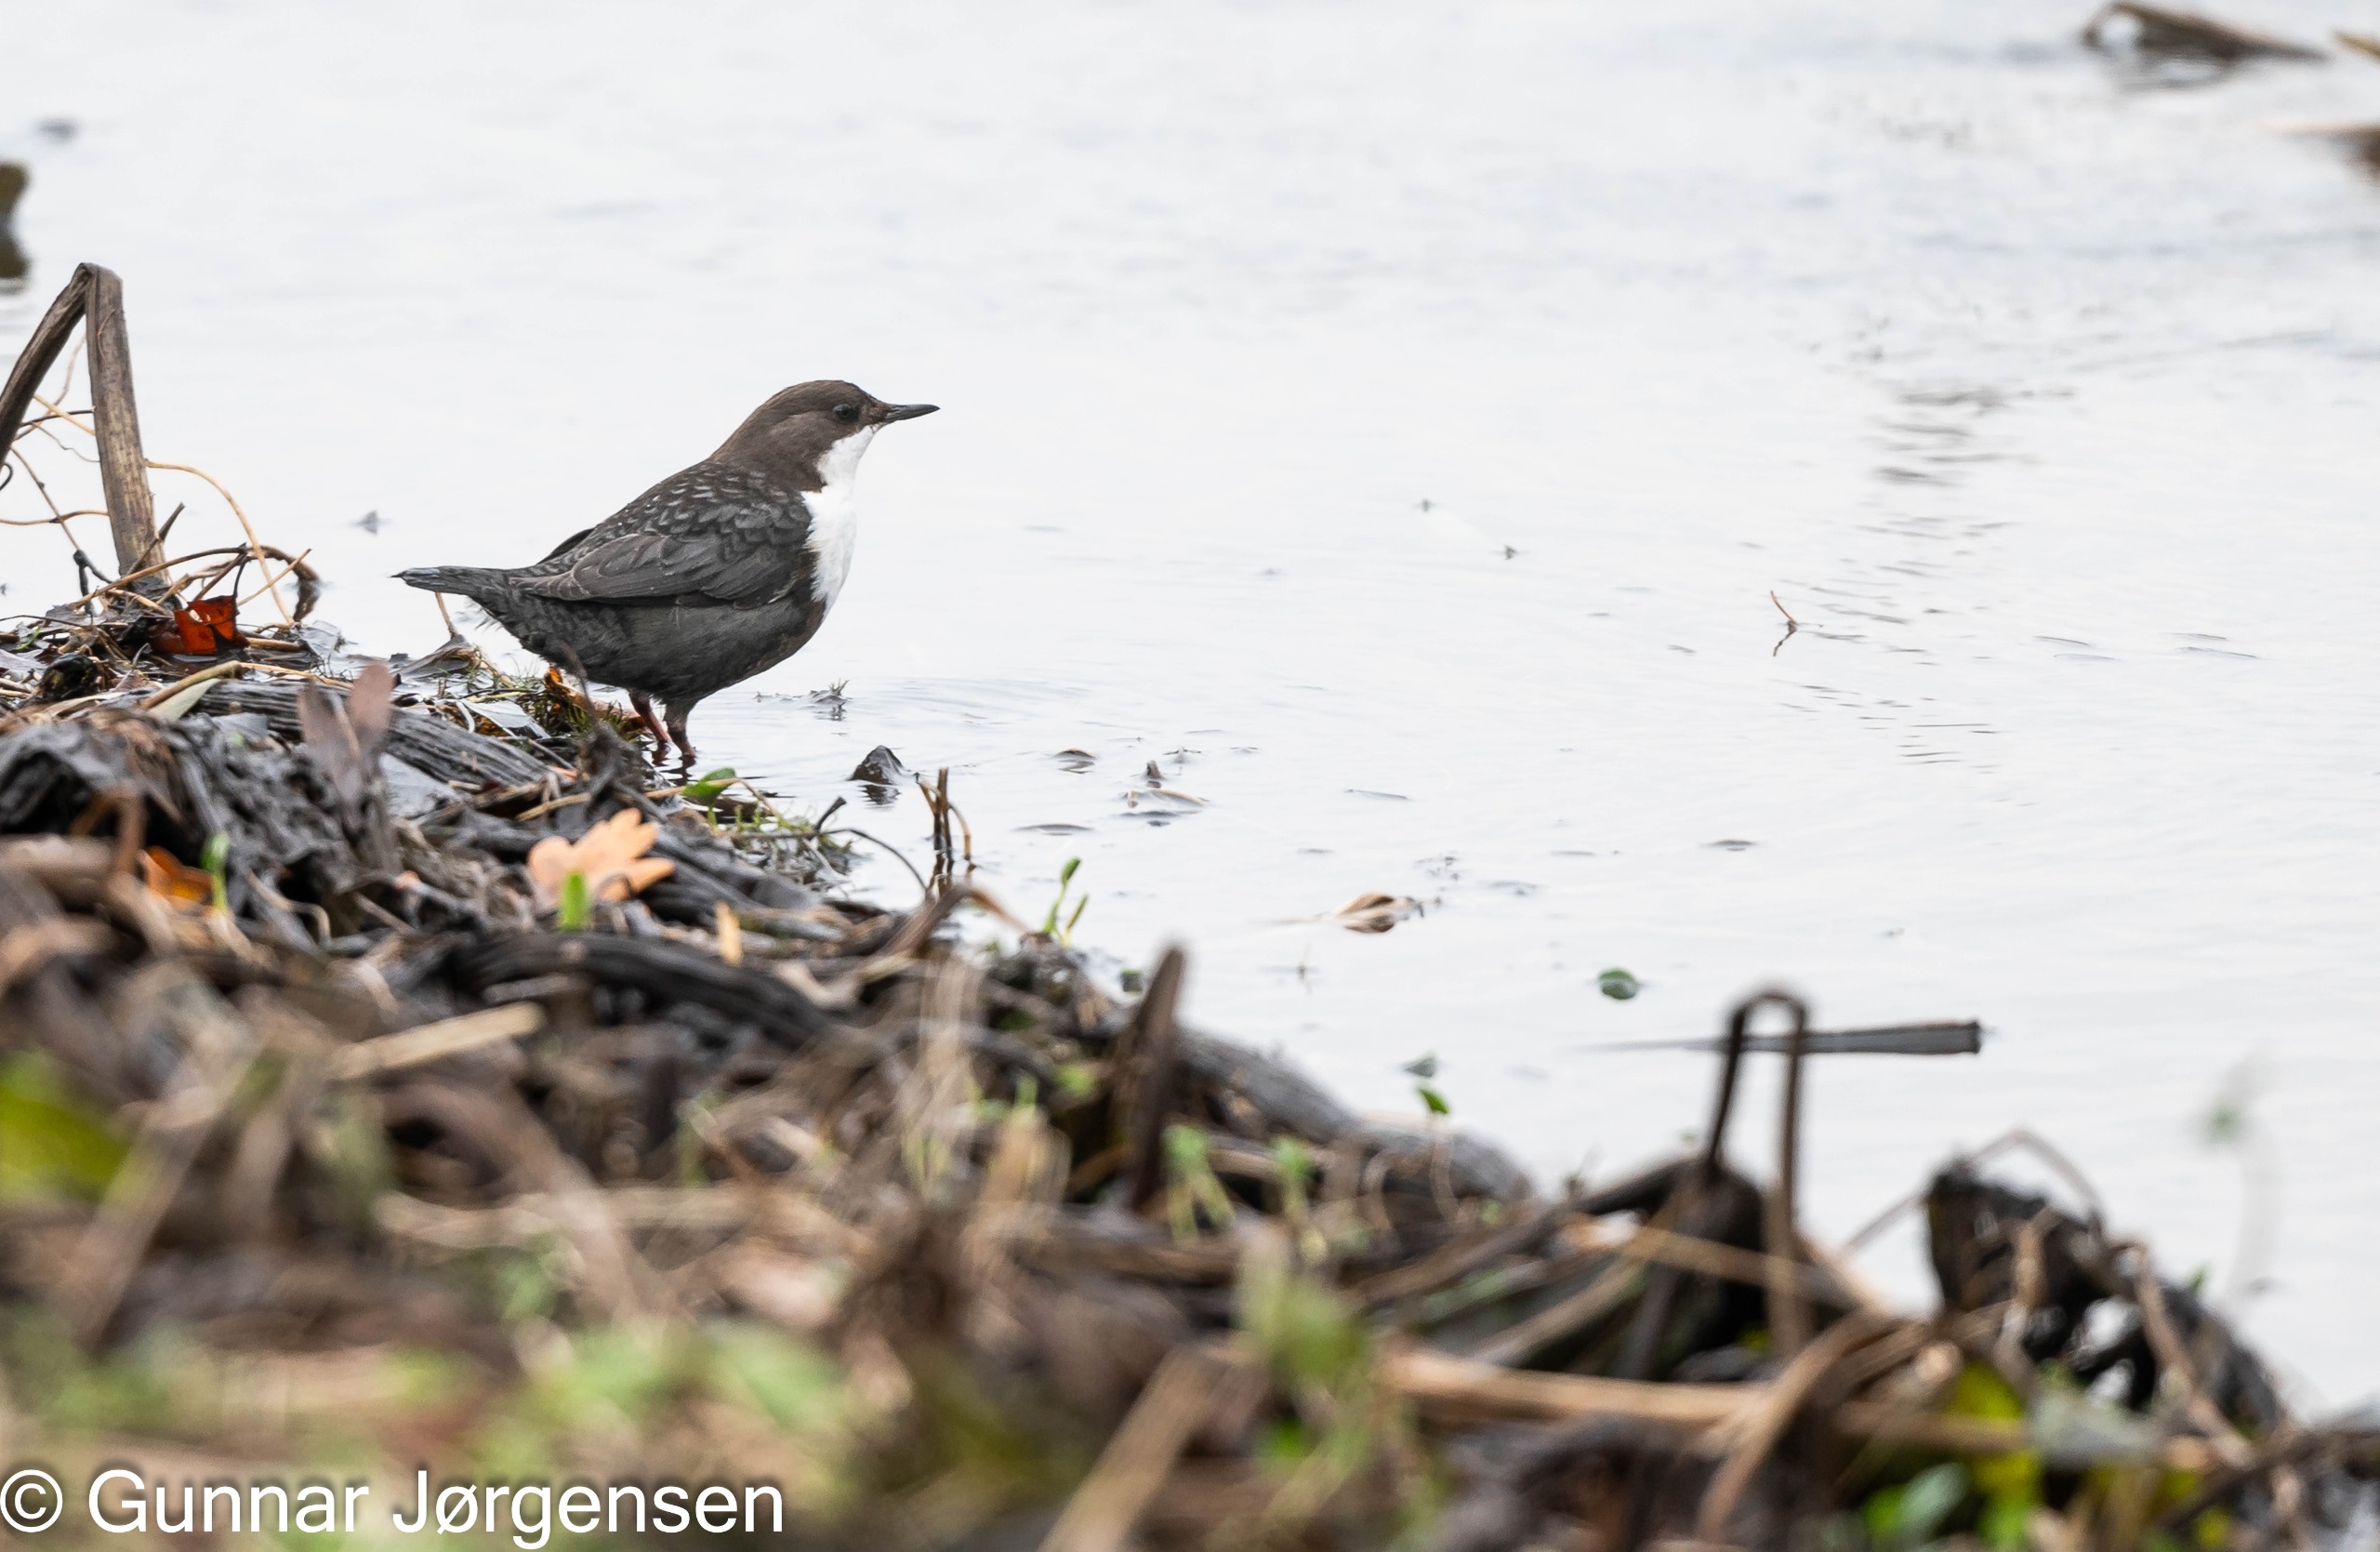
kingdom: Animalia
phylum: Chordata
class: Aves
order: Passeriformes
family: Cinclidae
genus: Cinclus
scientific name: Cinclus cinclus
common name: Vandstær
